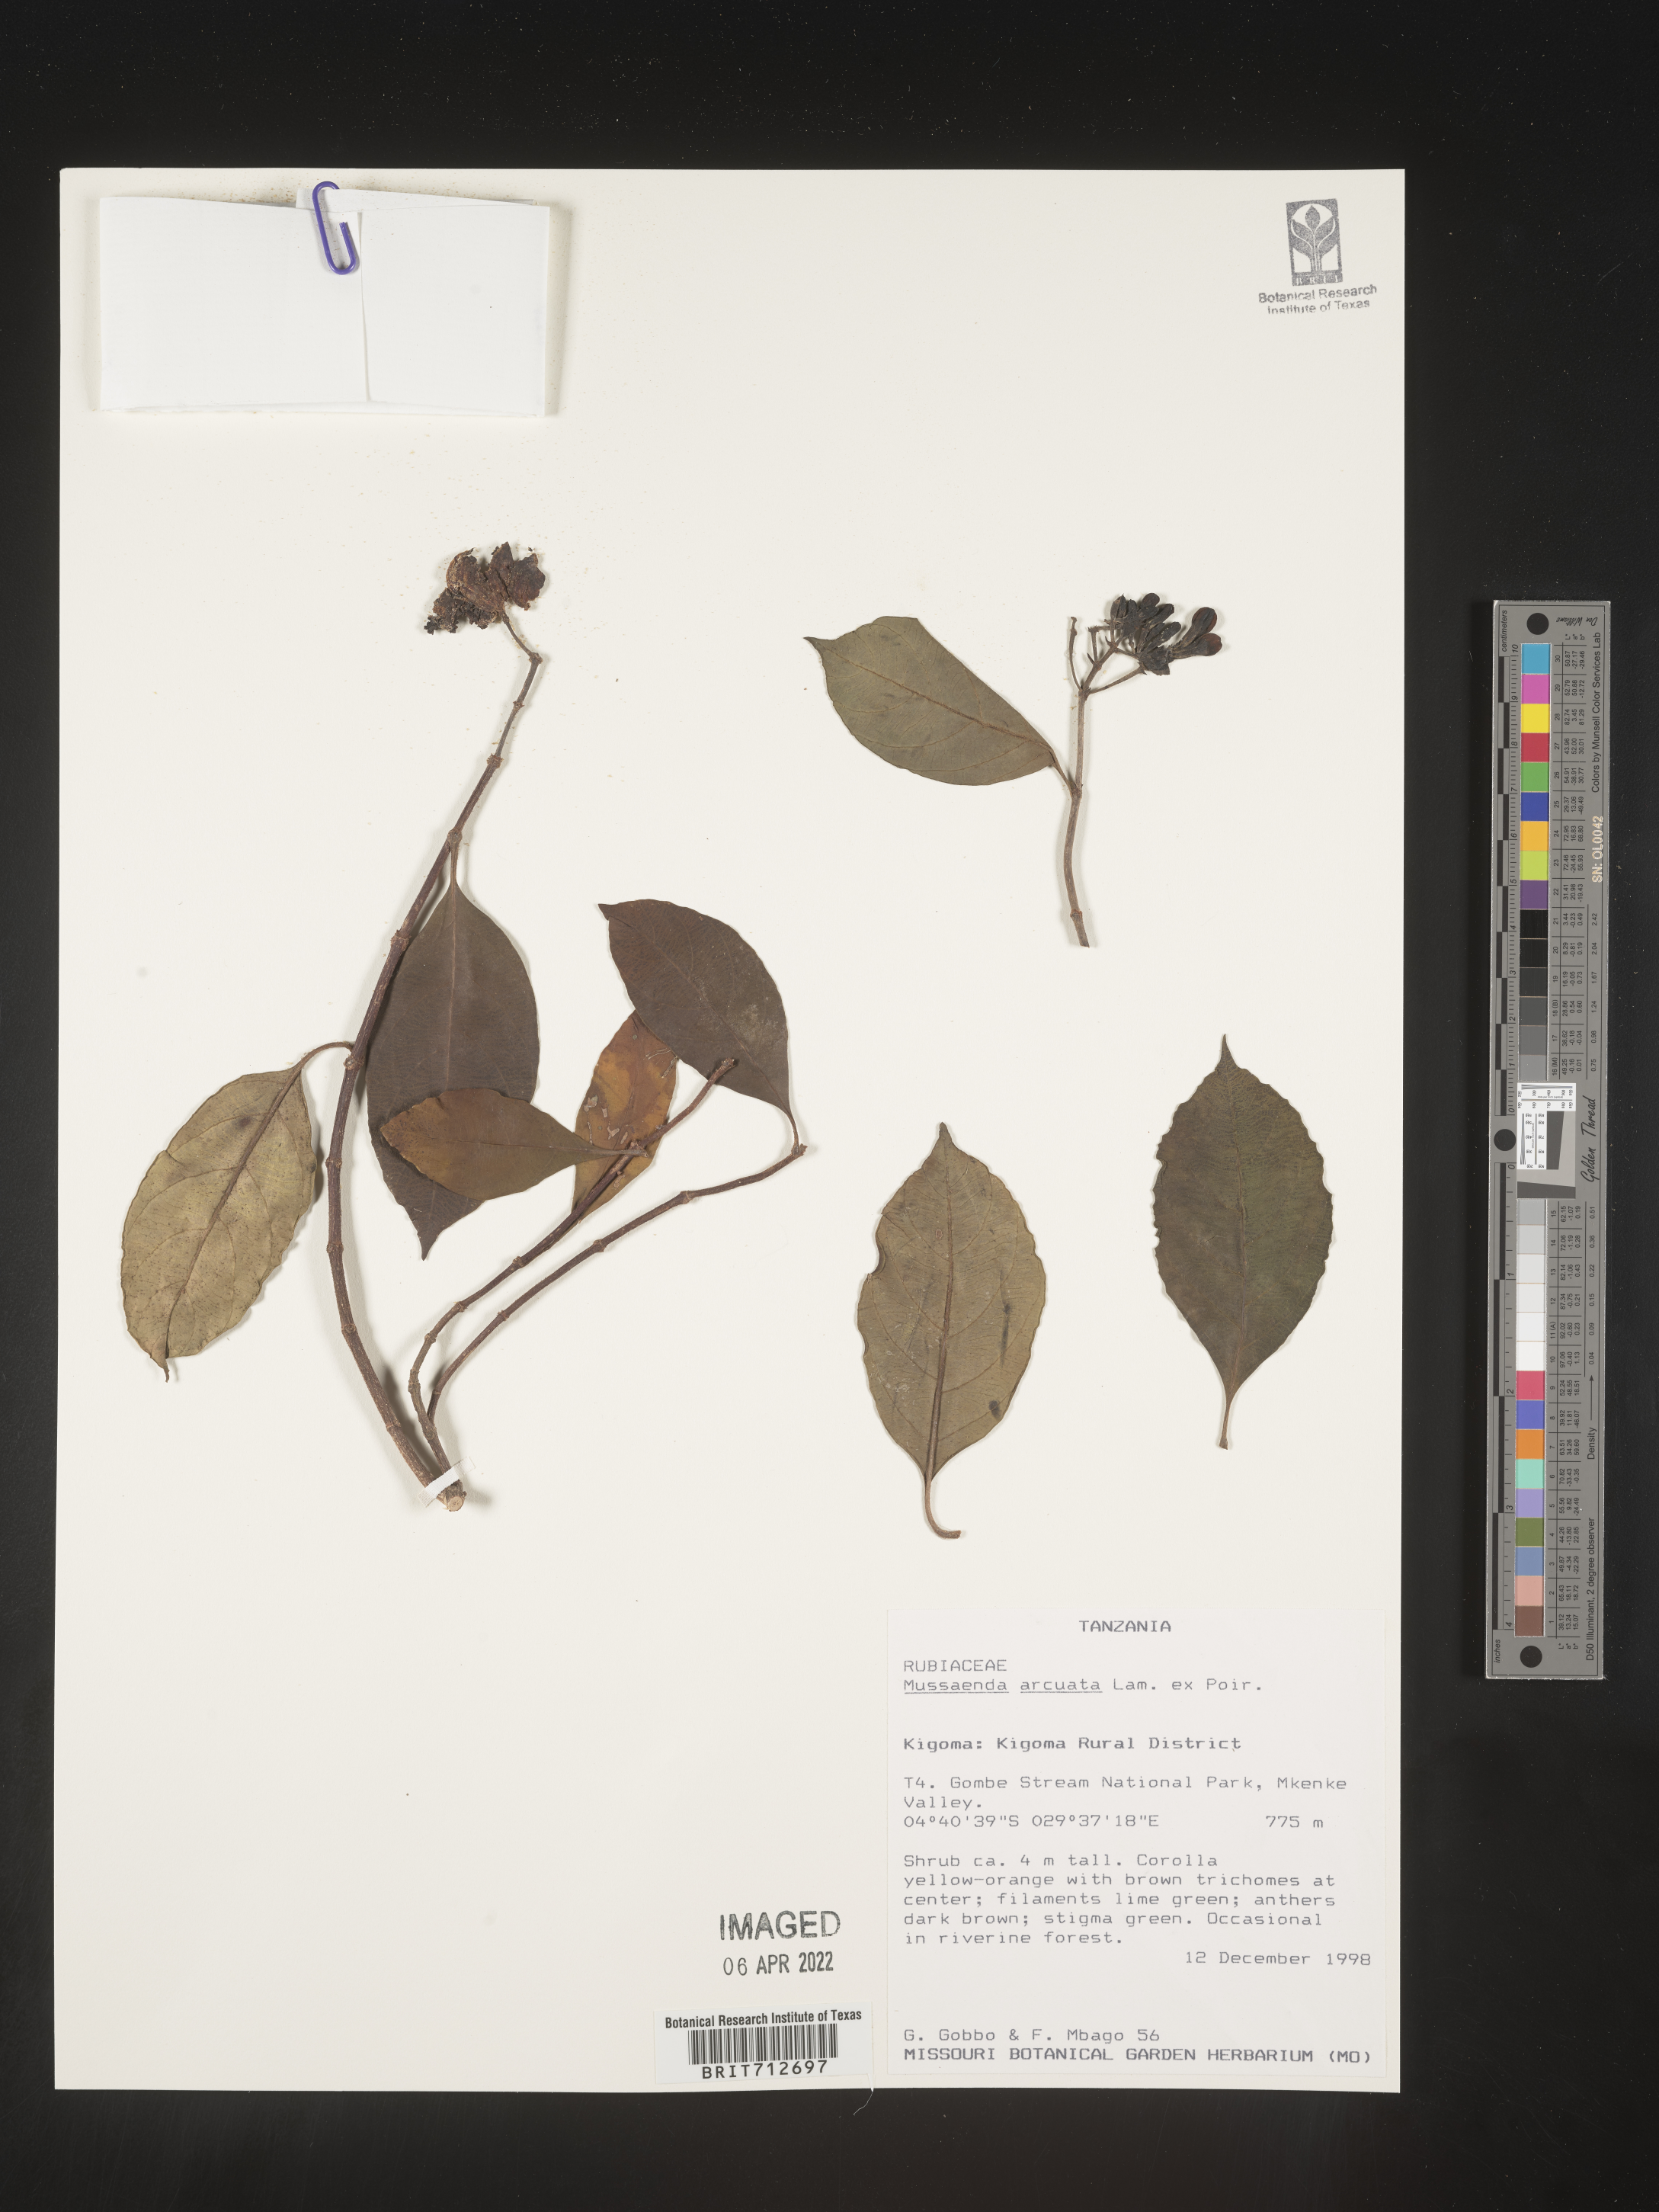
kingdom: Plantae
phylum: Tracheophyta
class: Magnoliopsida
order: Gentianales
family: Rubiaceae
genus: Mussaenda
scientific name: Mussaenda
